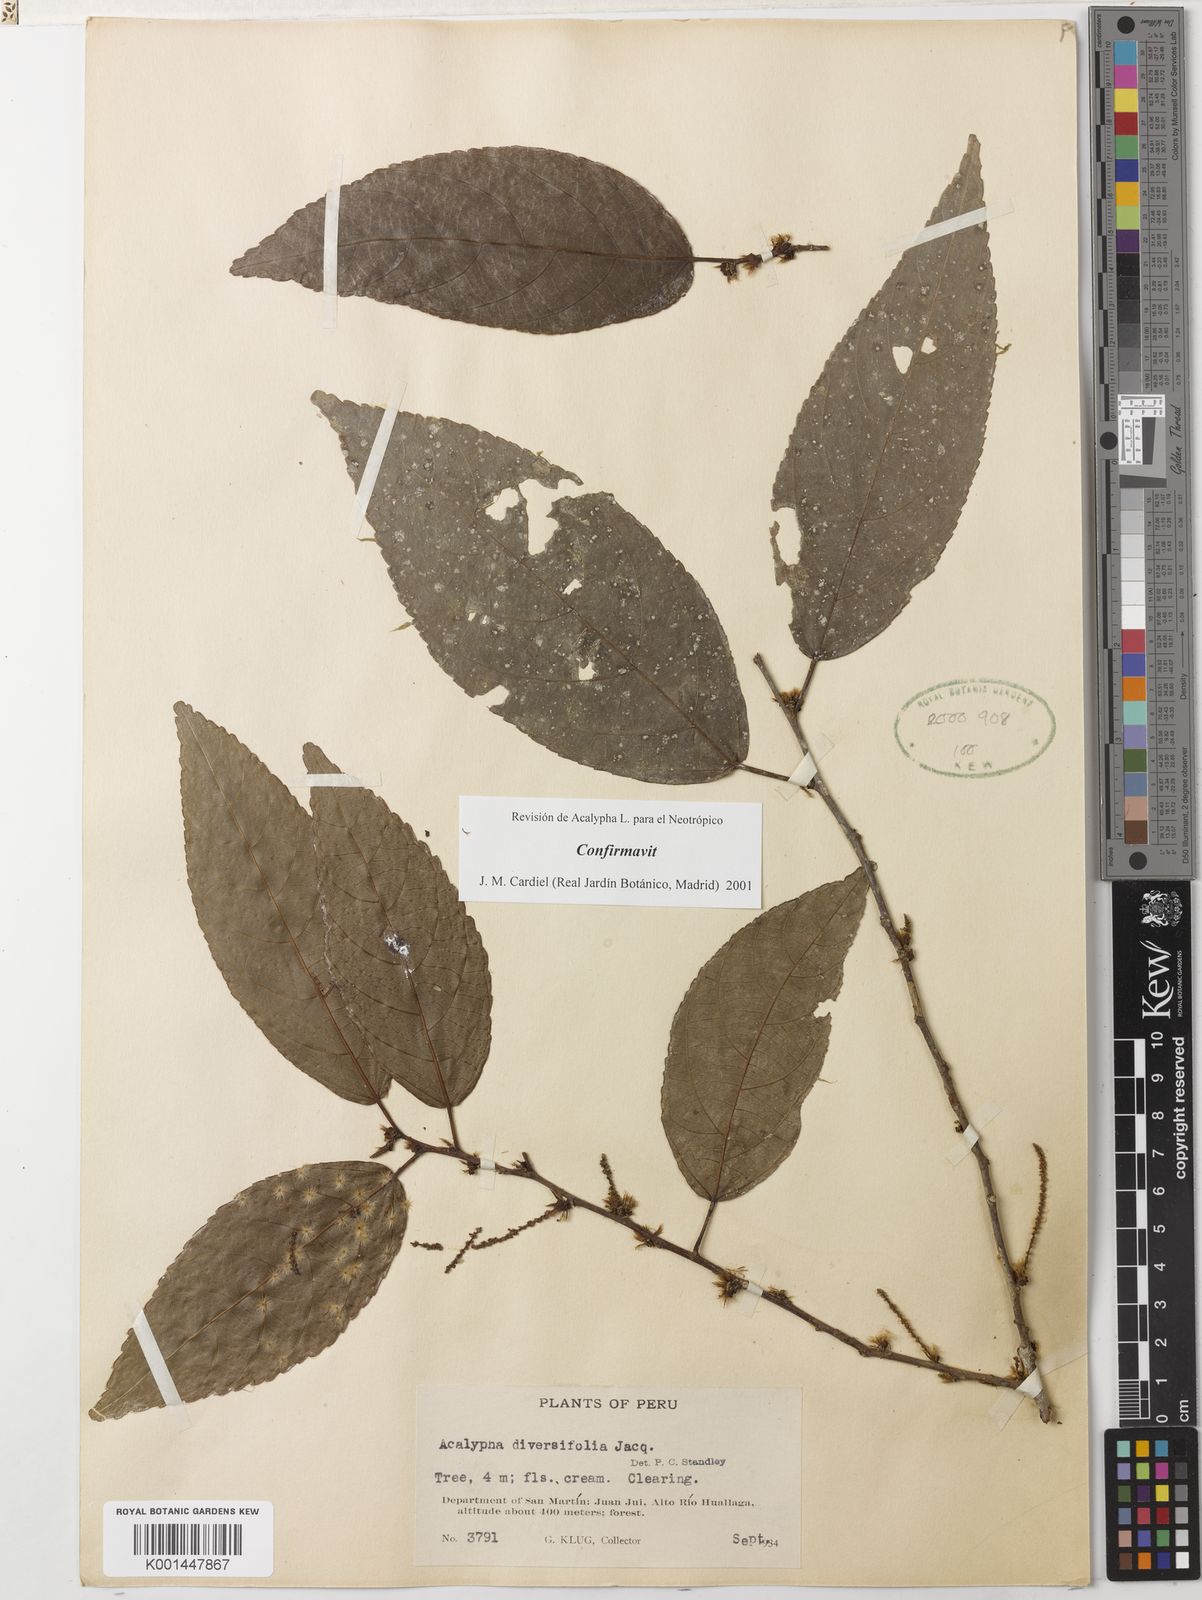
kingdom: Plantae
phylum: Tracheophyta
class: Magnoliopsida
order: Malpighiales
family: Euphorbiaceae
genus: Acalypha
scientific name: Acalypha diversifolia
